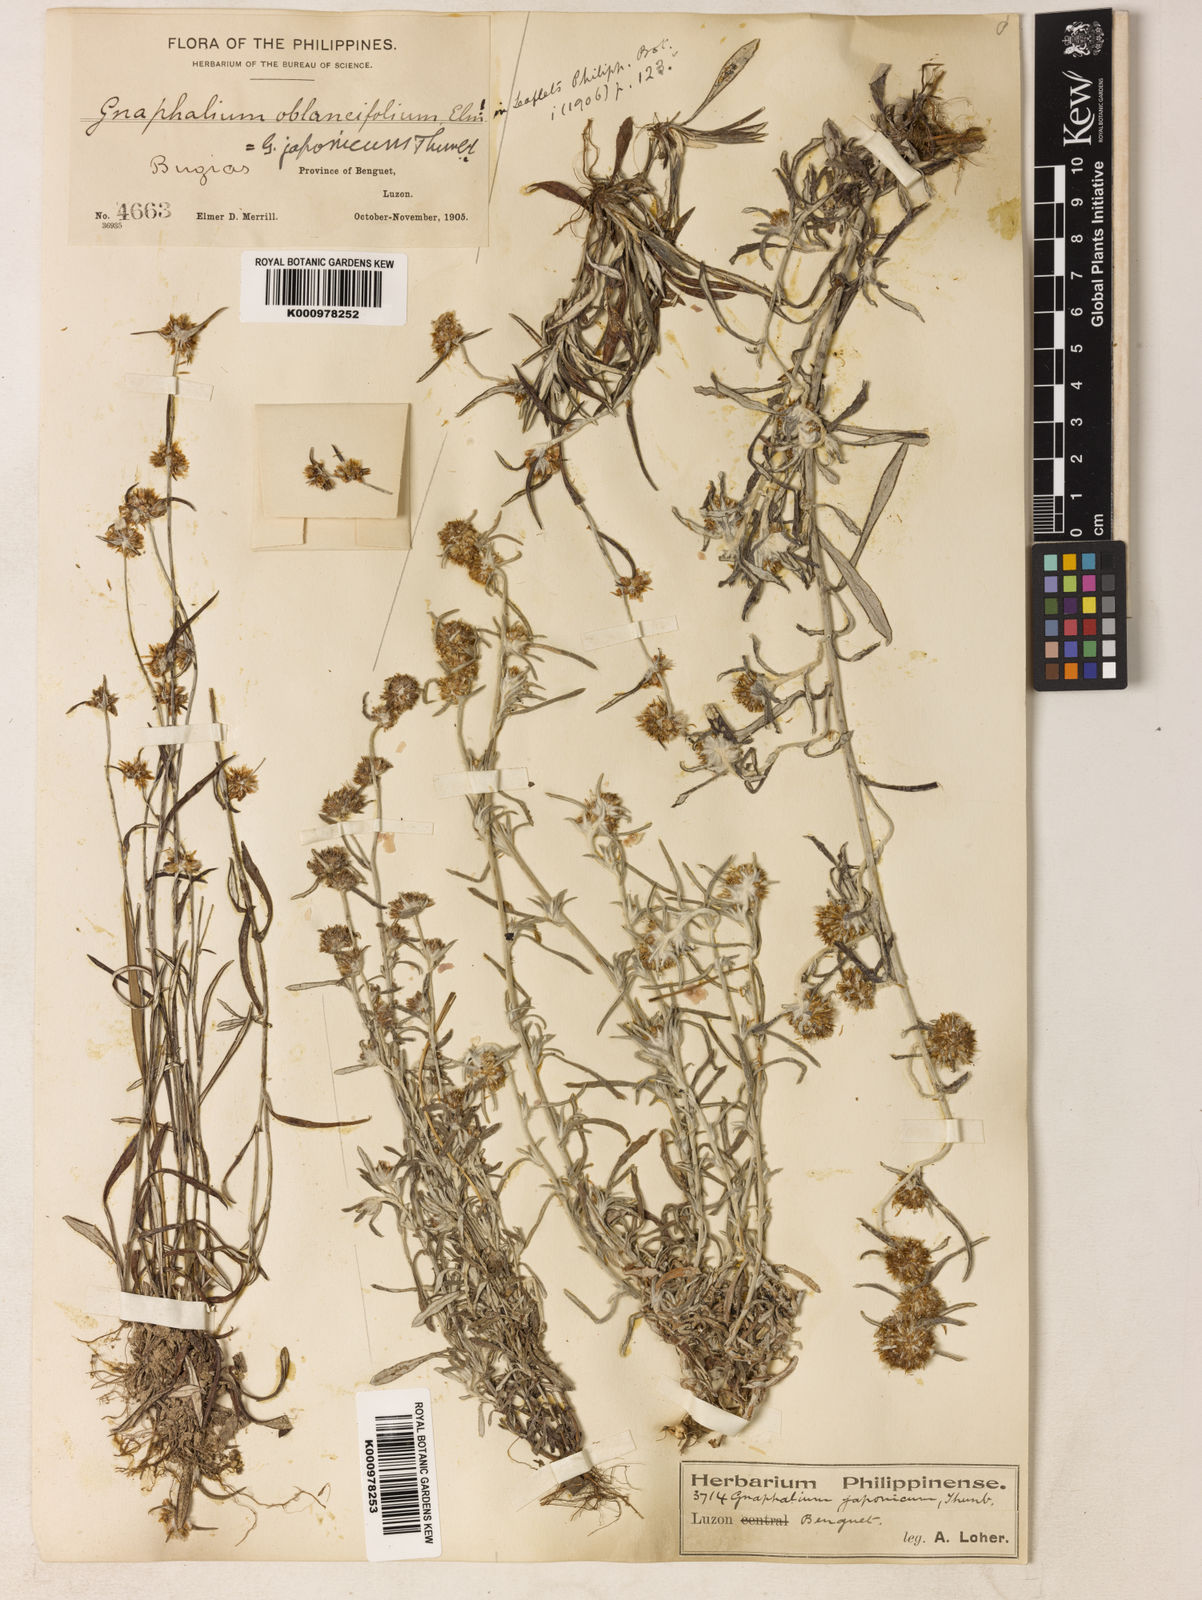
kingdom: Plantae
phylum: Tracheophyta
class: Magnoliopsida
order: Asterales
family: Asteraceae
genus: Euchiton
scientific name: Euchiton
